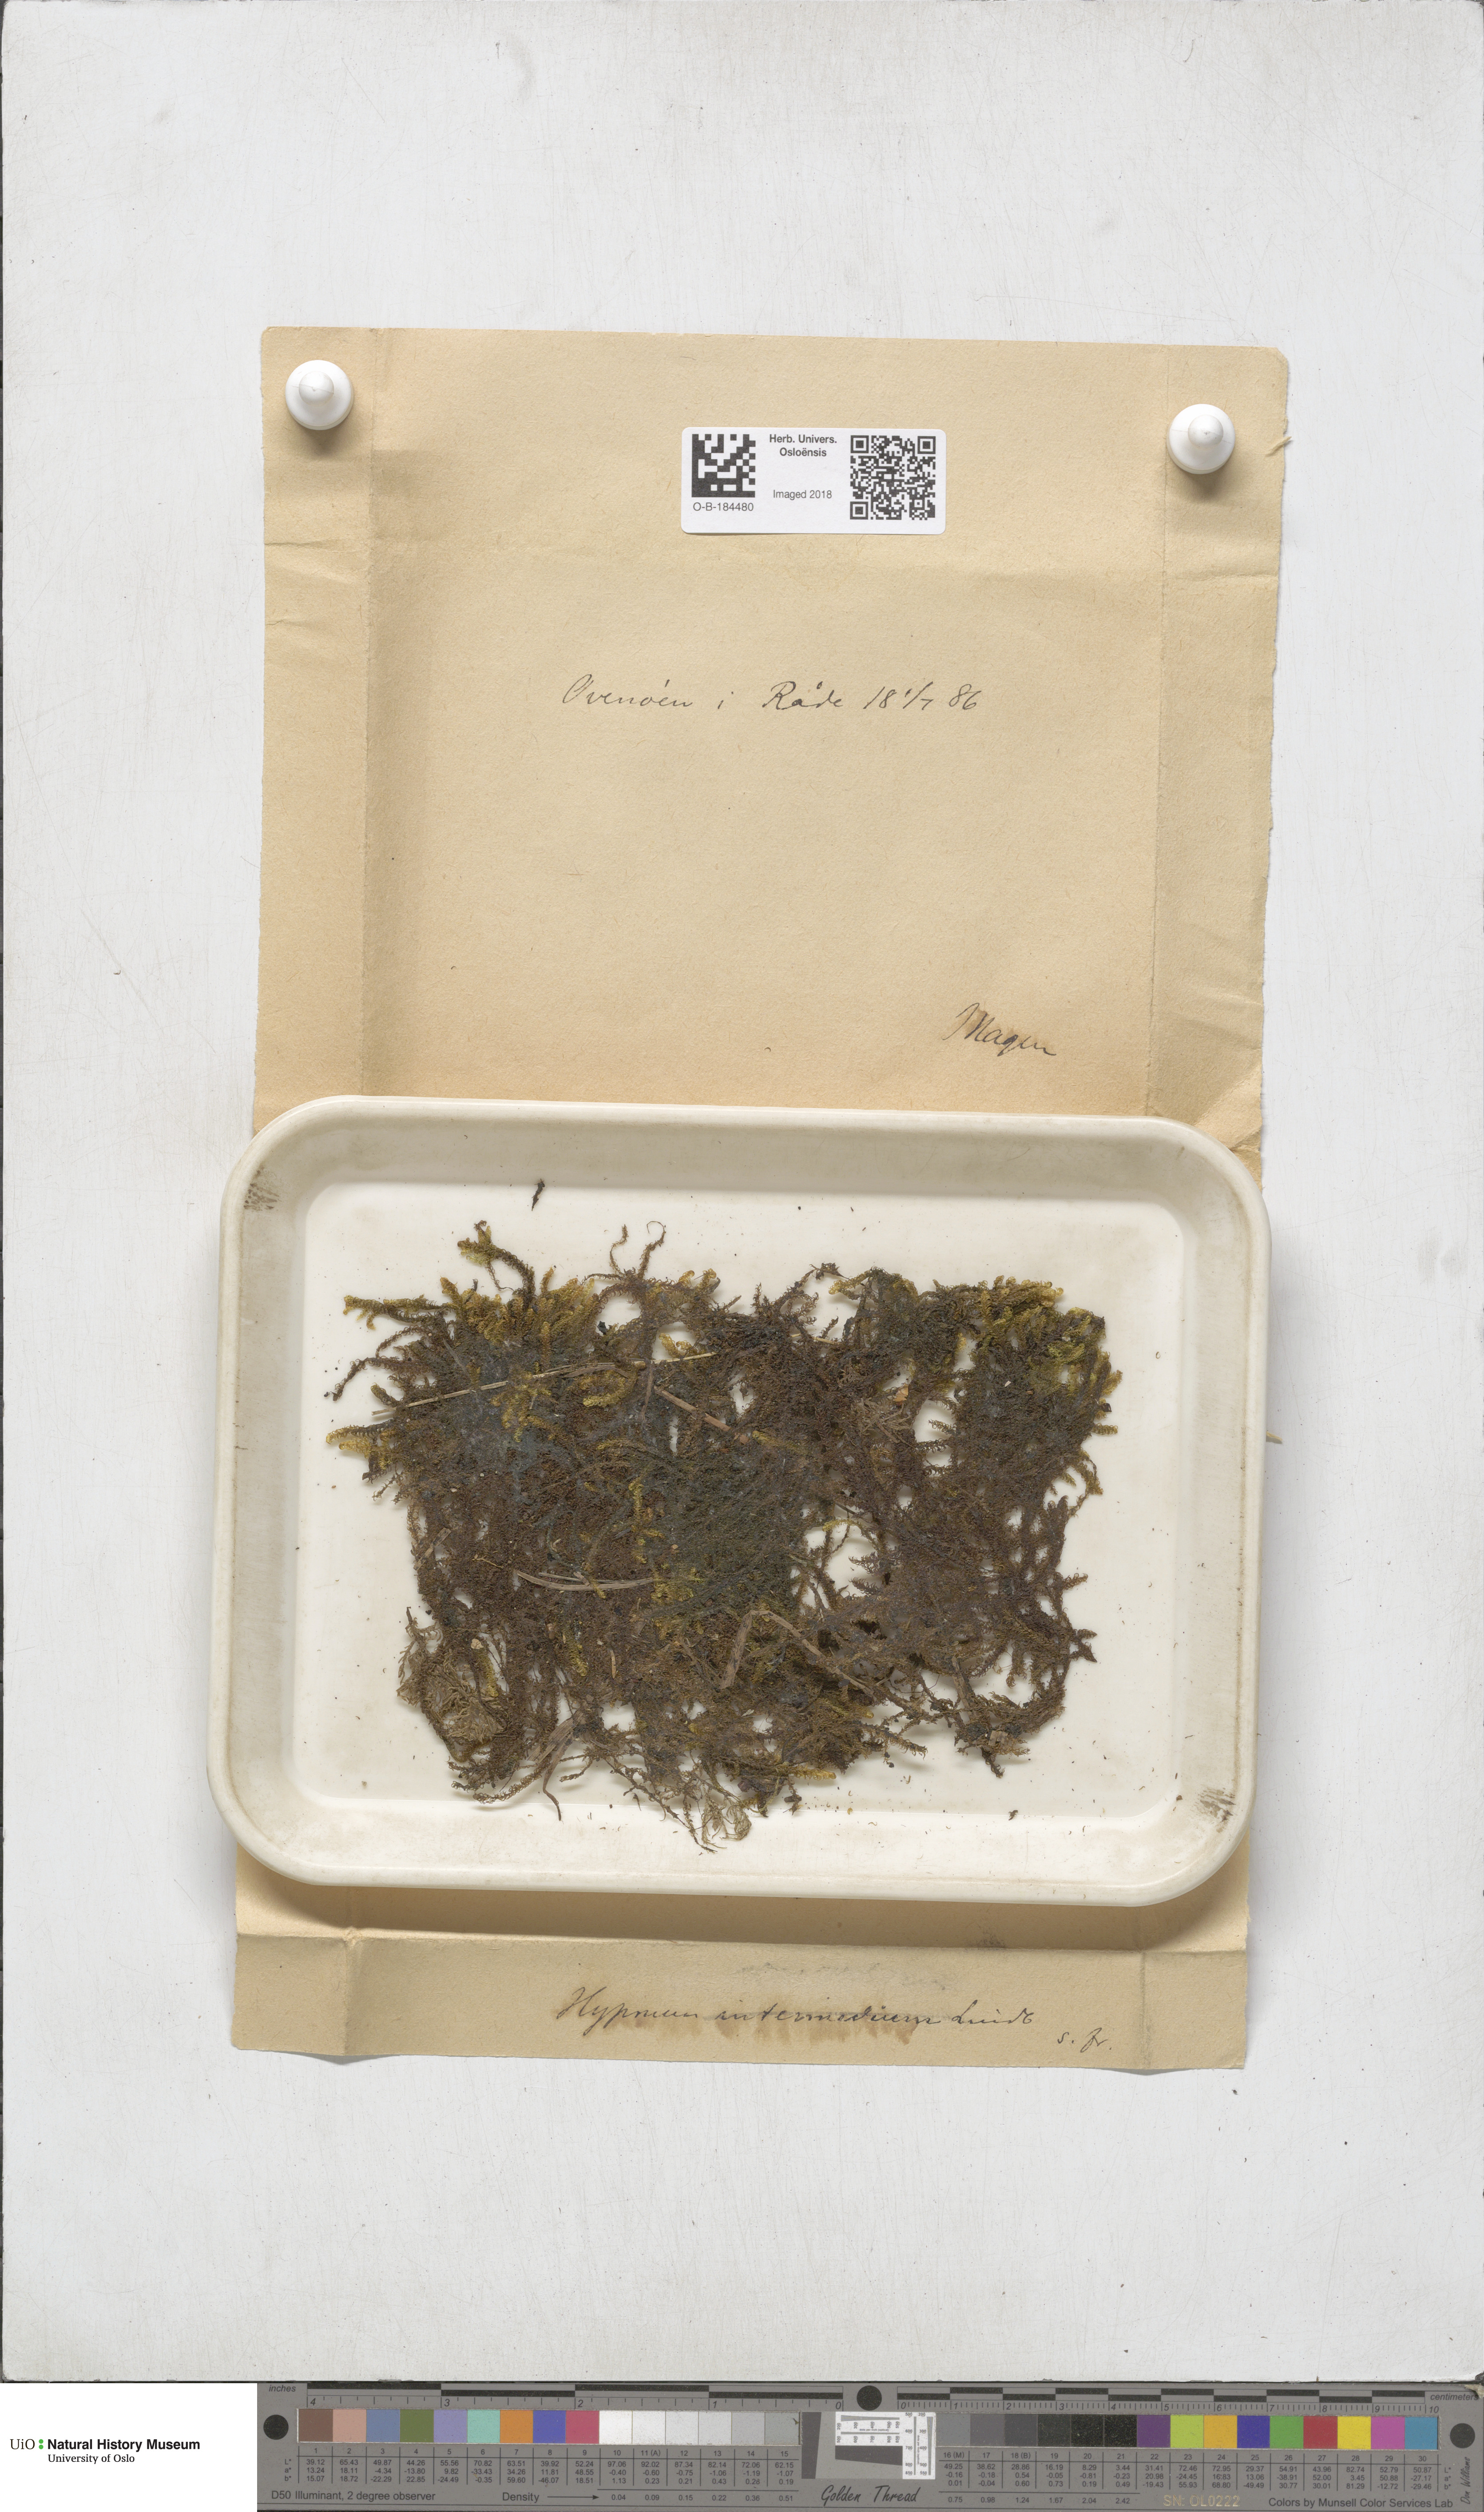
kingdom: Plantae
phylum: Bryophyta
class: Bryopsida
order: Hypnales
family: Scorpidiaceae
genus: Scorpidium
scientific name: Scorpidium cossonii
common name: Cosson's hook moss
